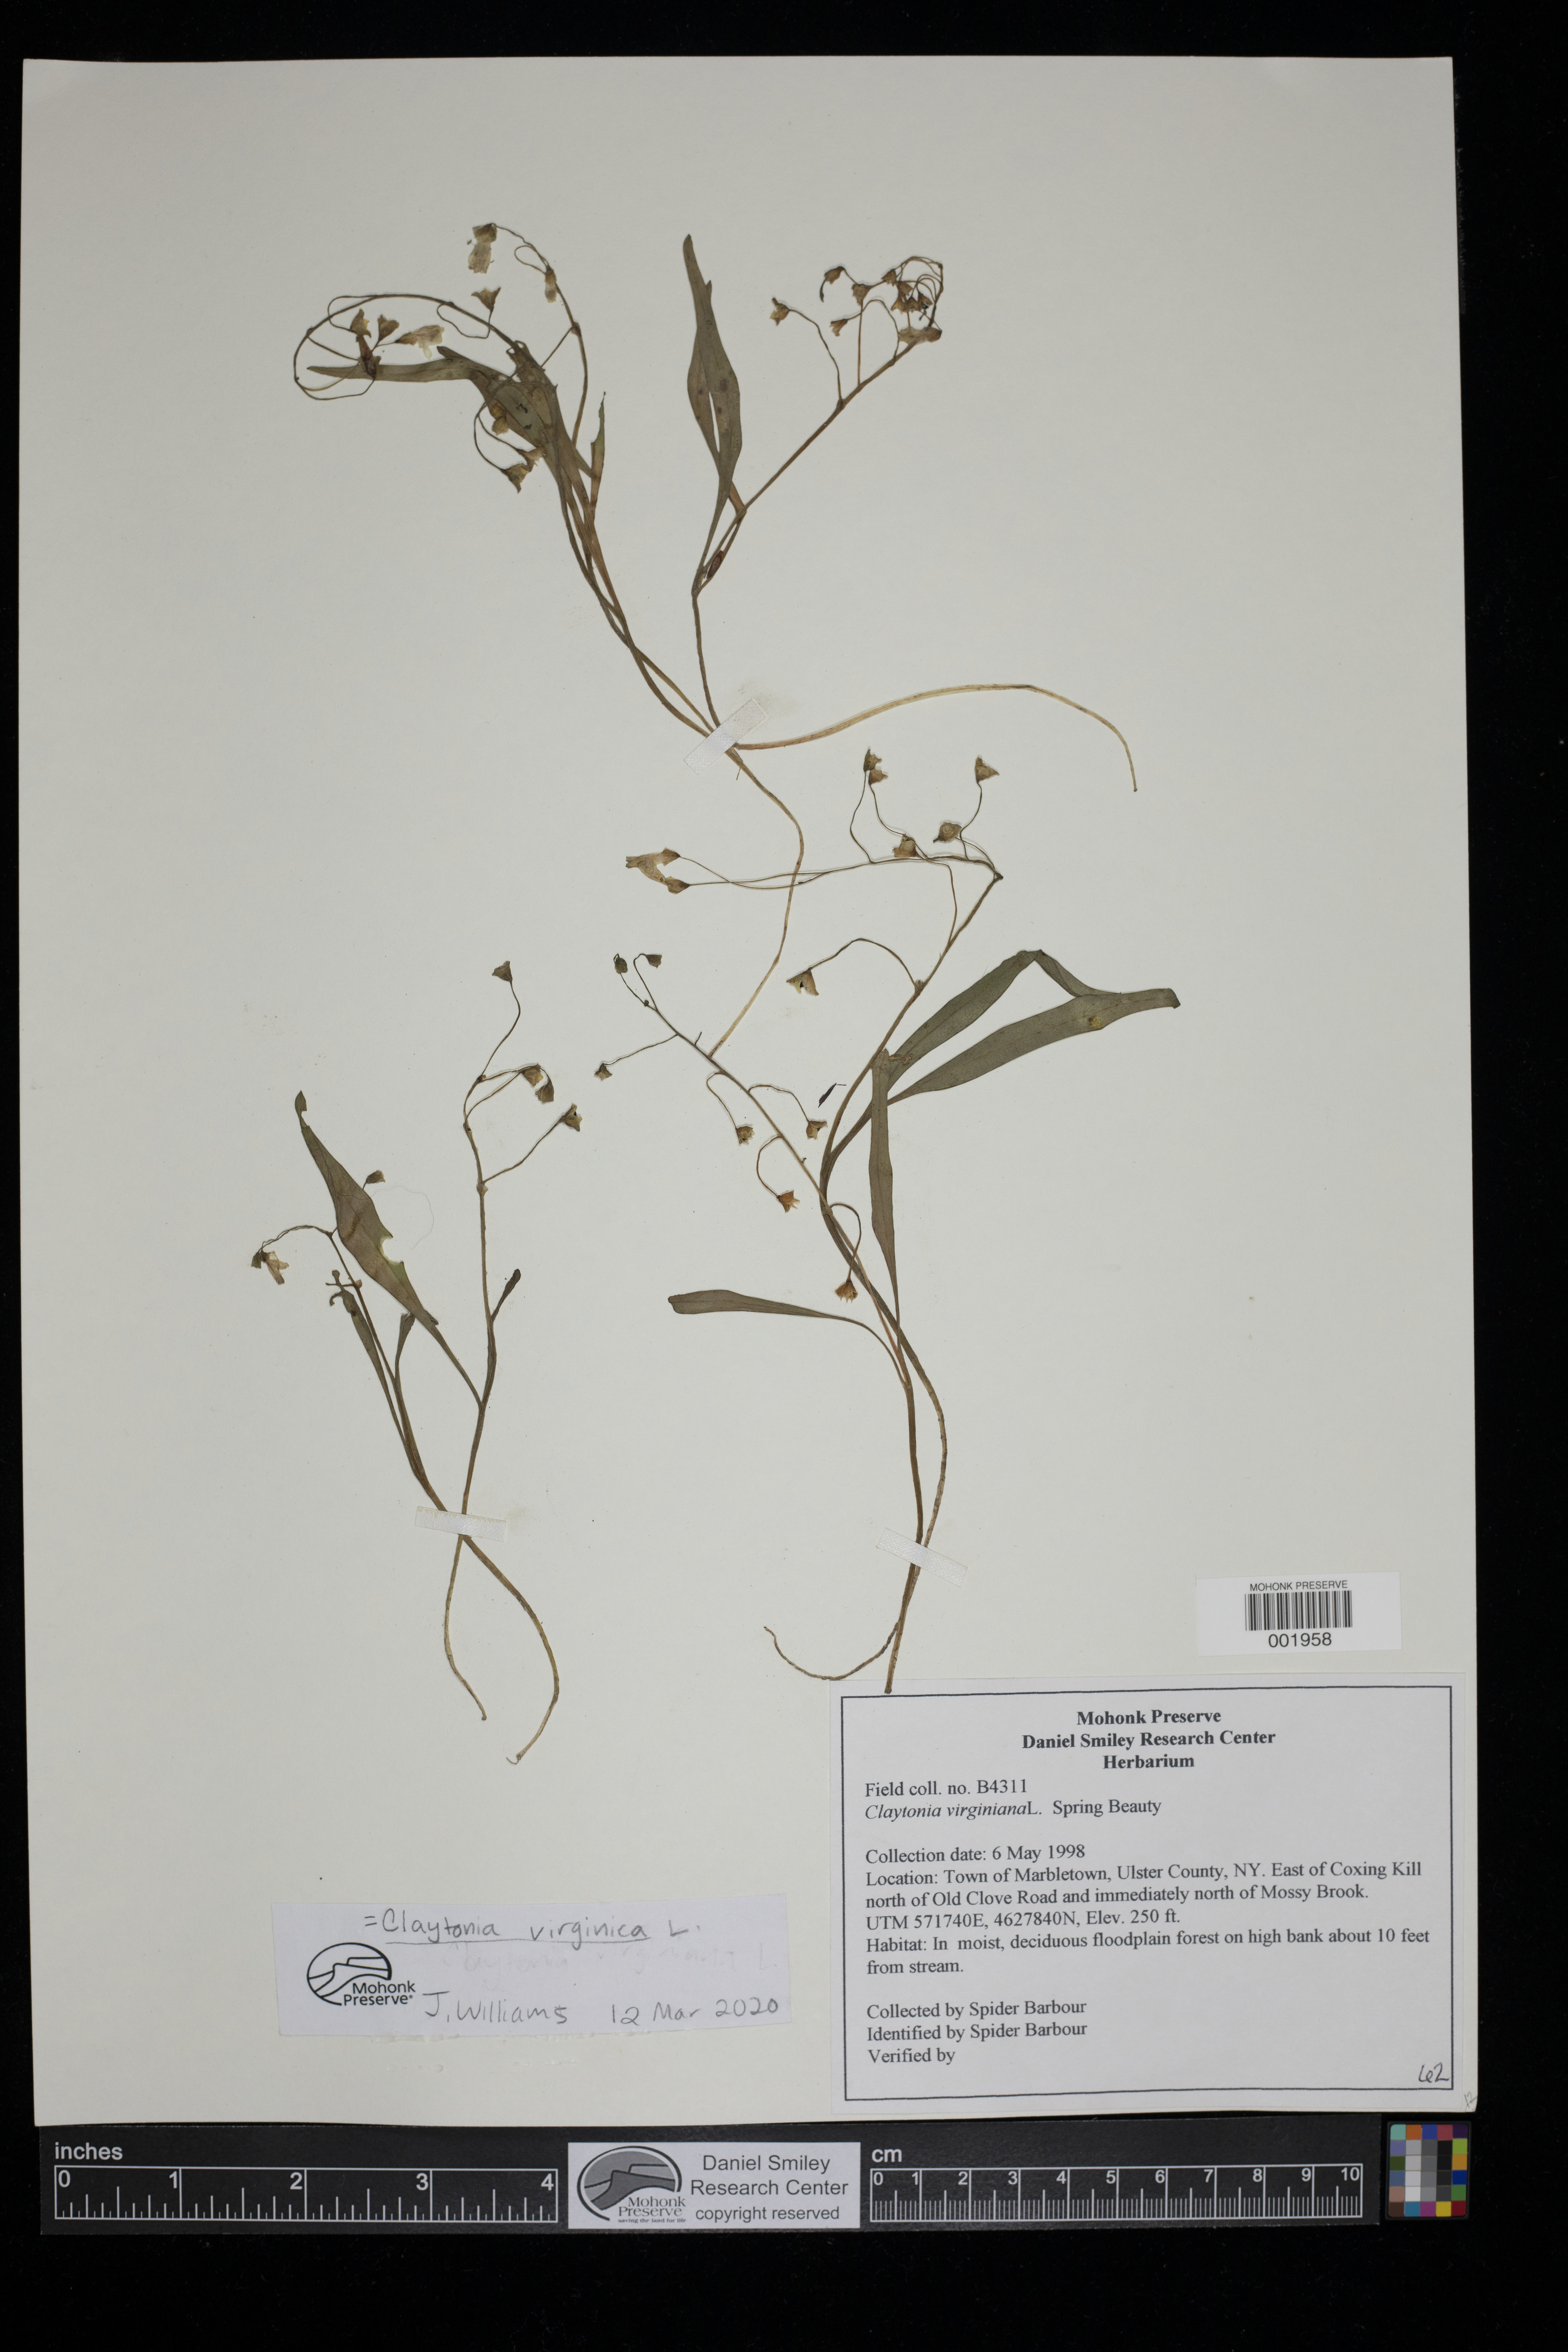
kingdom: Plantae
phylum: Tracheophyta
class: Magnoliopsida
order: Caryophyllales
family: Montiaceae
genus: Claytonia
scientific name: Claytonia virginica
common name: Virginia springbeauty
